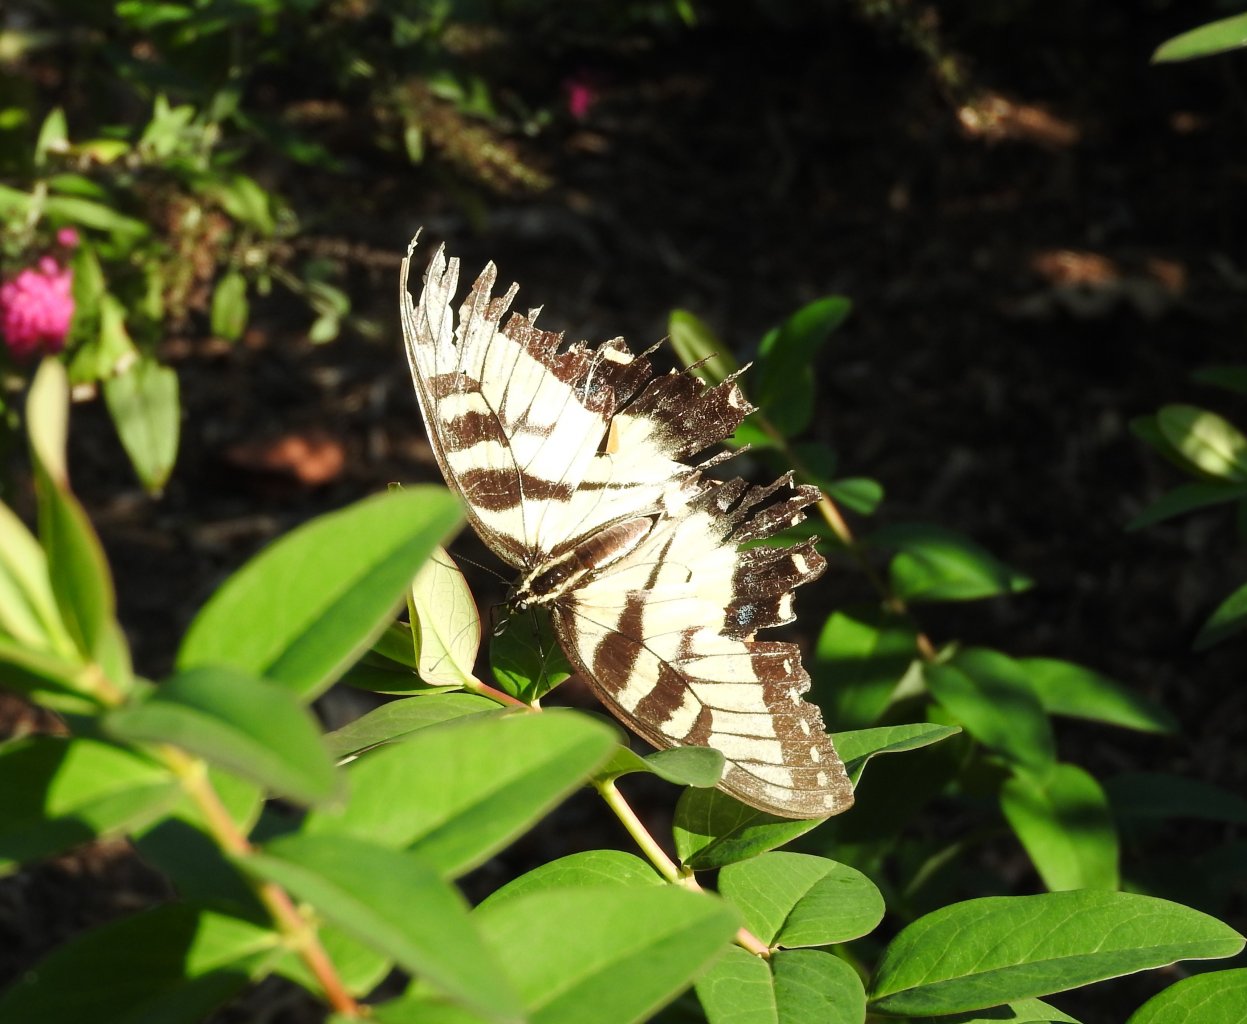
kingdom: Animalia
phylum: Arthropoda
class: Insecta
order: Lepidoptera
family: Papilionidae
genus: Pterourus
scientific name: Pterourus glaucus
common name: Eastern Tiger Swallowtail
